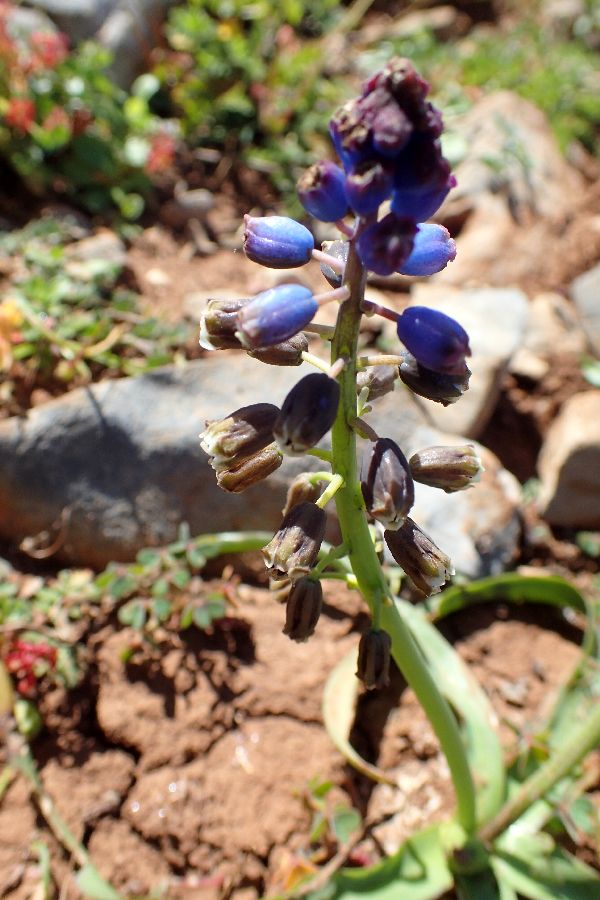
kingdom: Plantae
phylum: Tracheophyta
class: Liliopsida
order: Asparagales
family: Asparagaceae
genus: Bellevalia
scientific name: Bellevalia dubia
